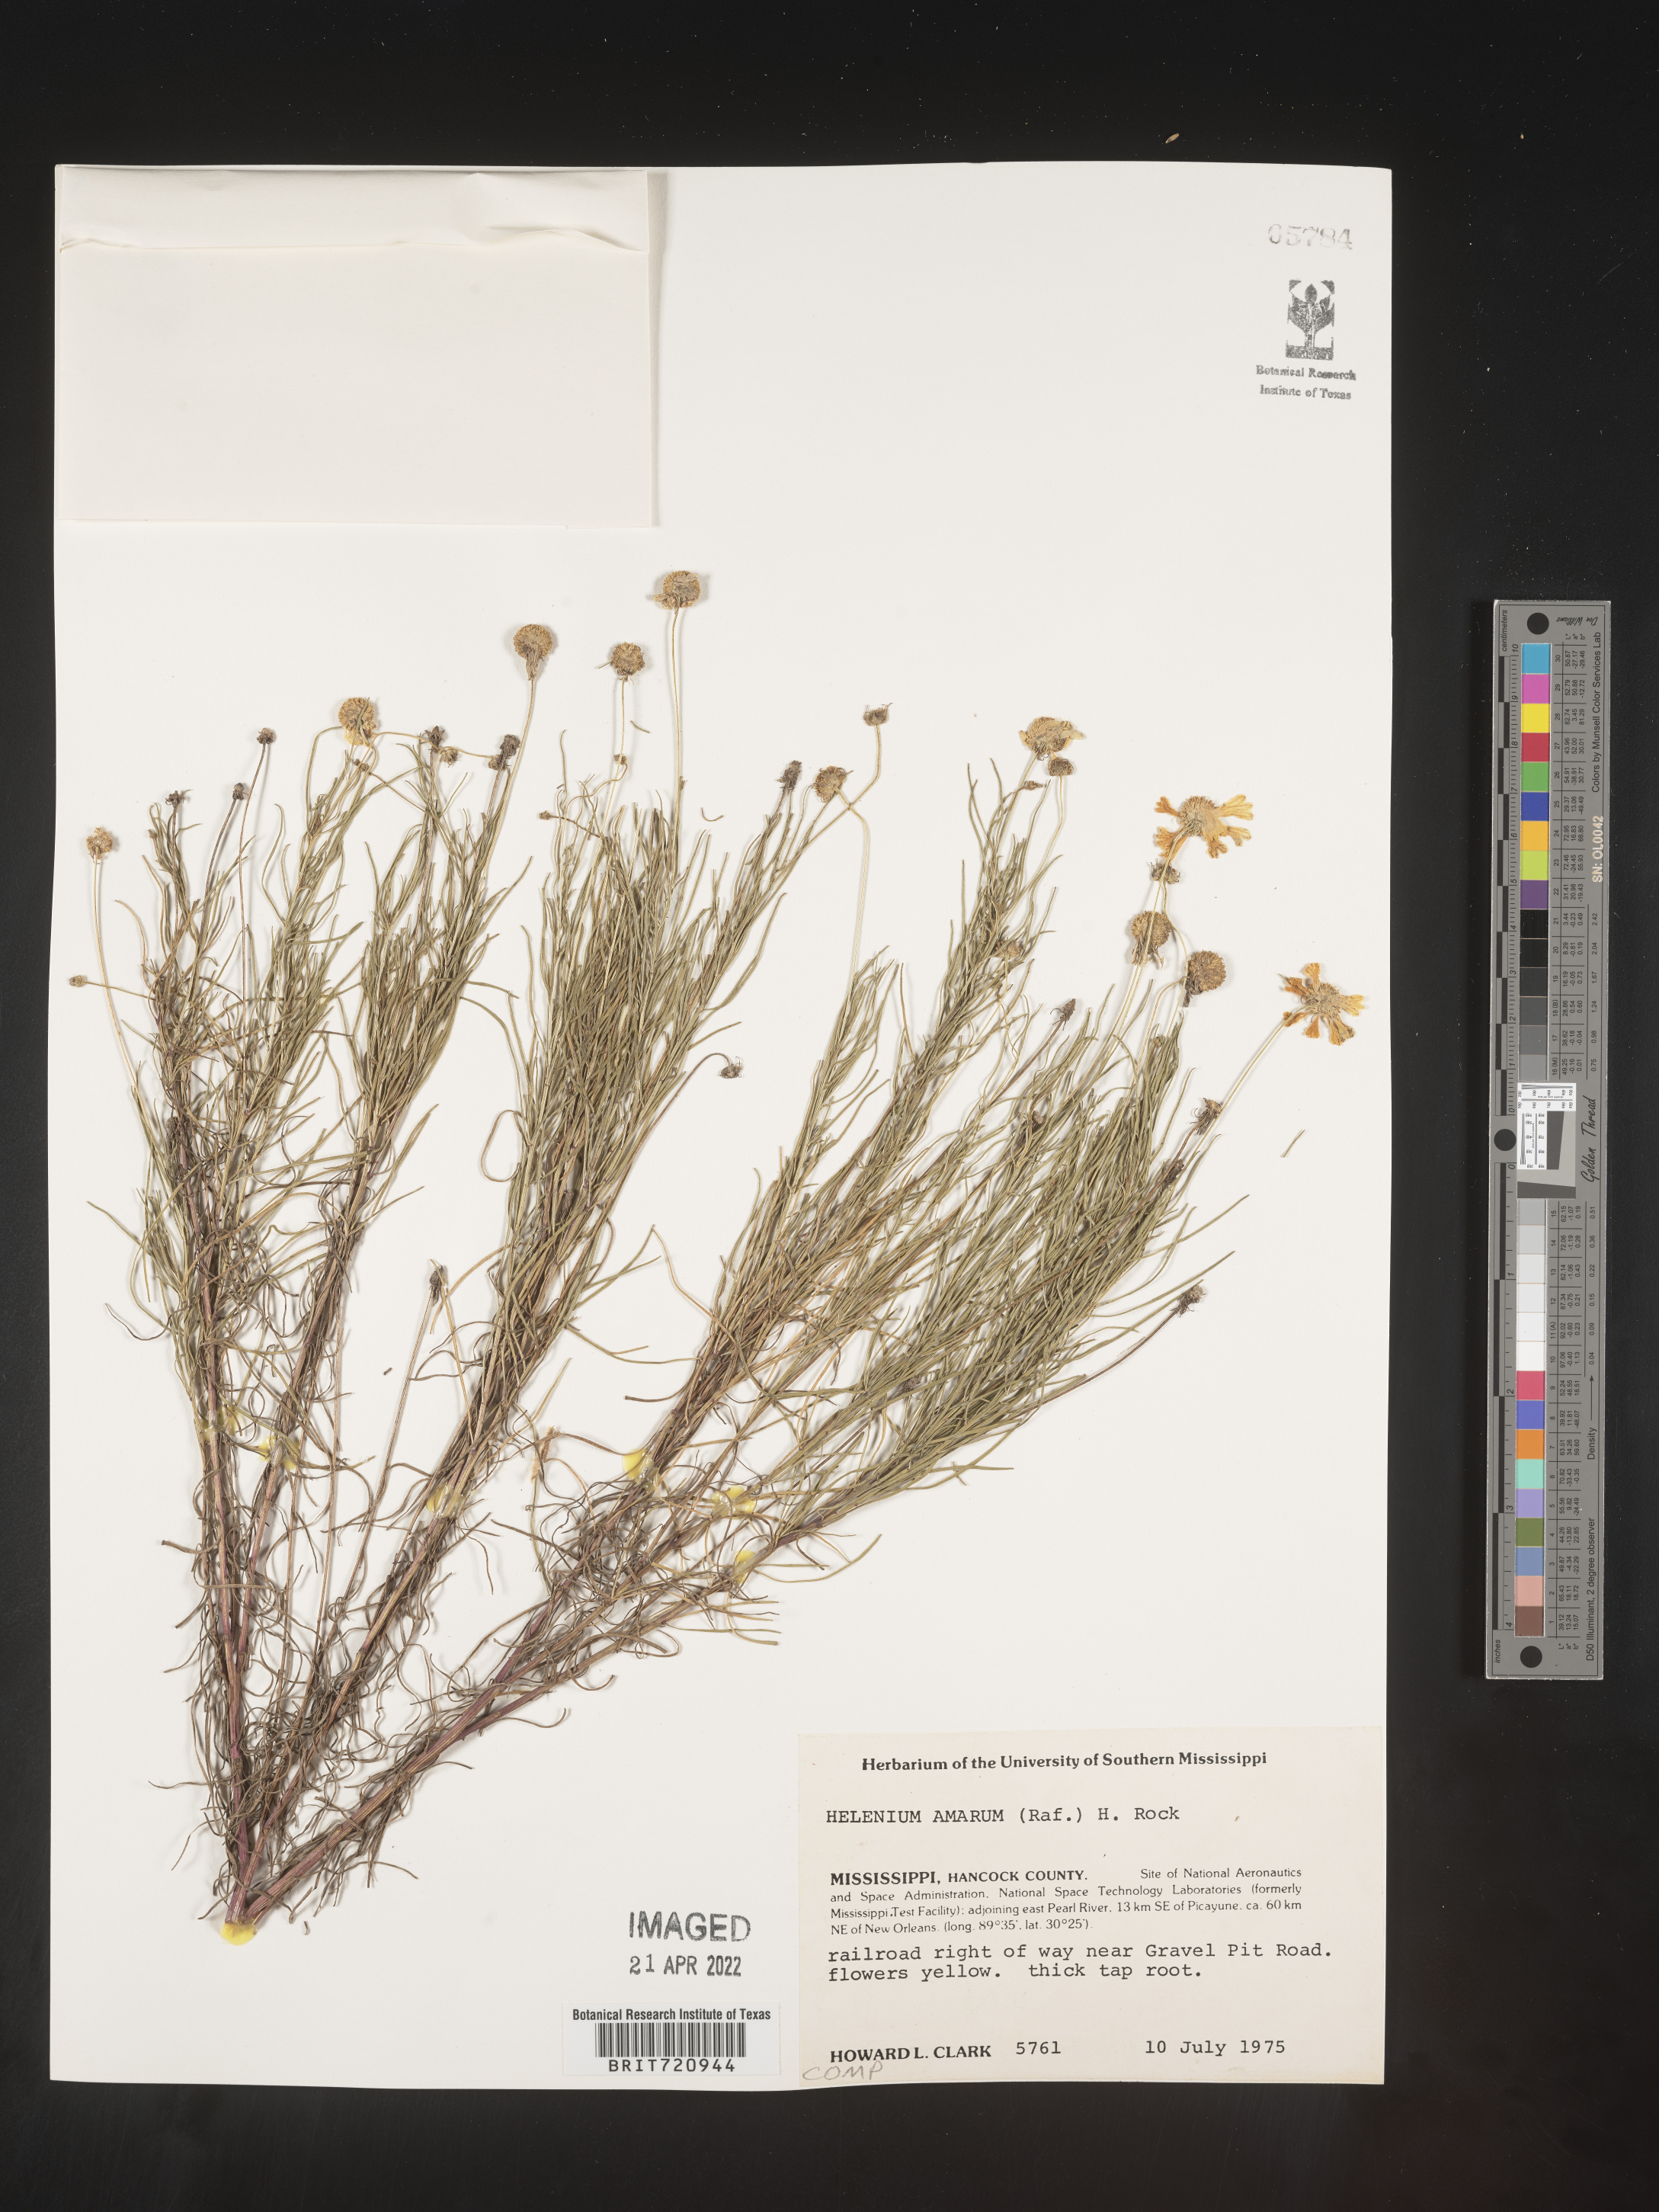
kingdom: Plantae
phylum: Tracheophyta
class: Magnoliopsida
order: Asterales
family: Asteraceae
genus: Helenium
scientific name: Helenium amarum
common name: Bitter sneezeweed
